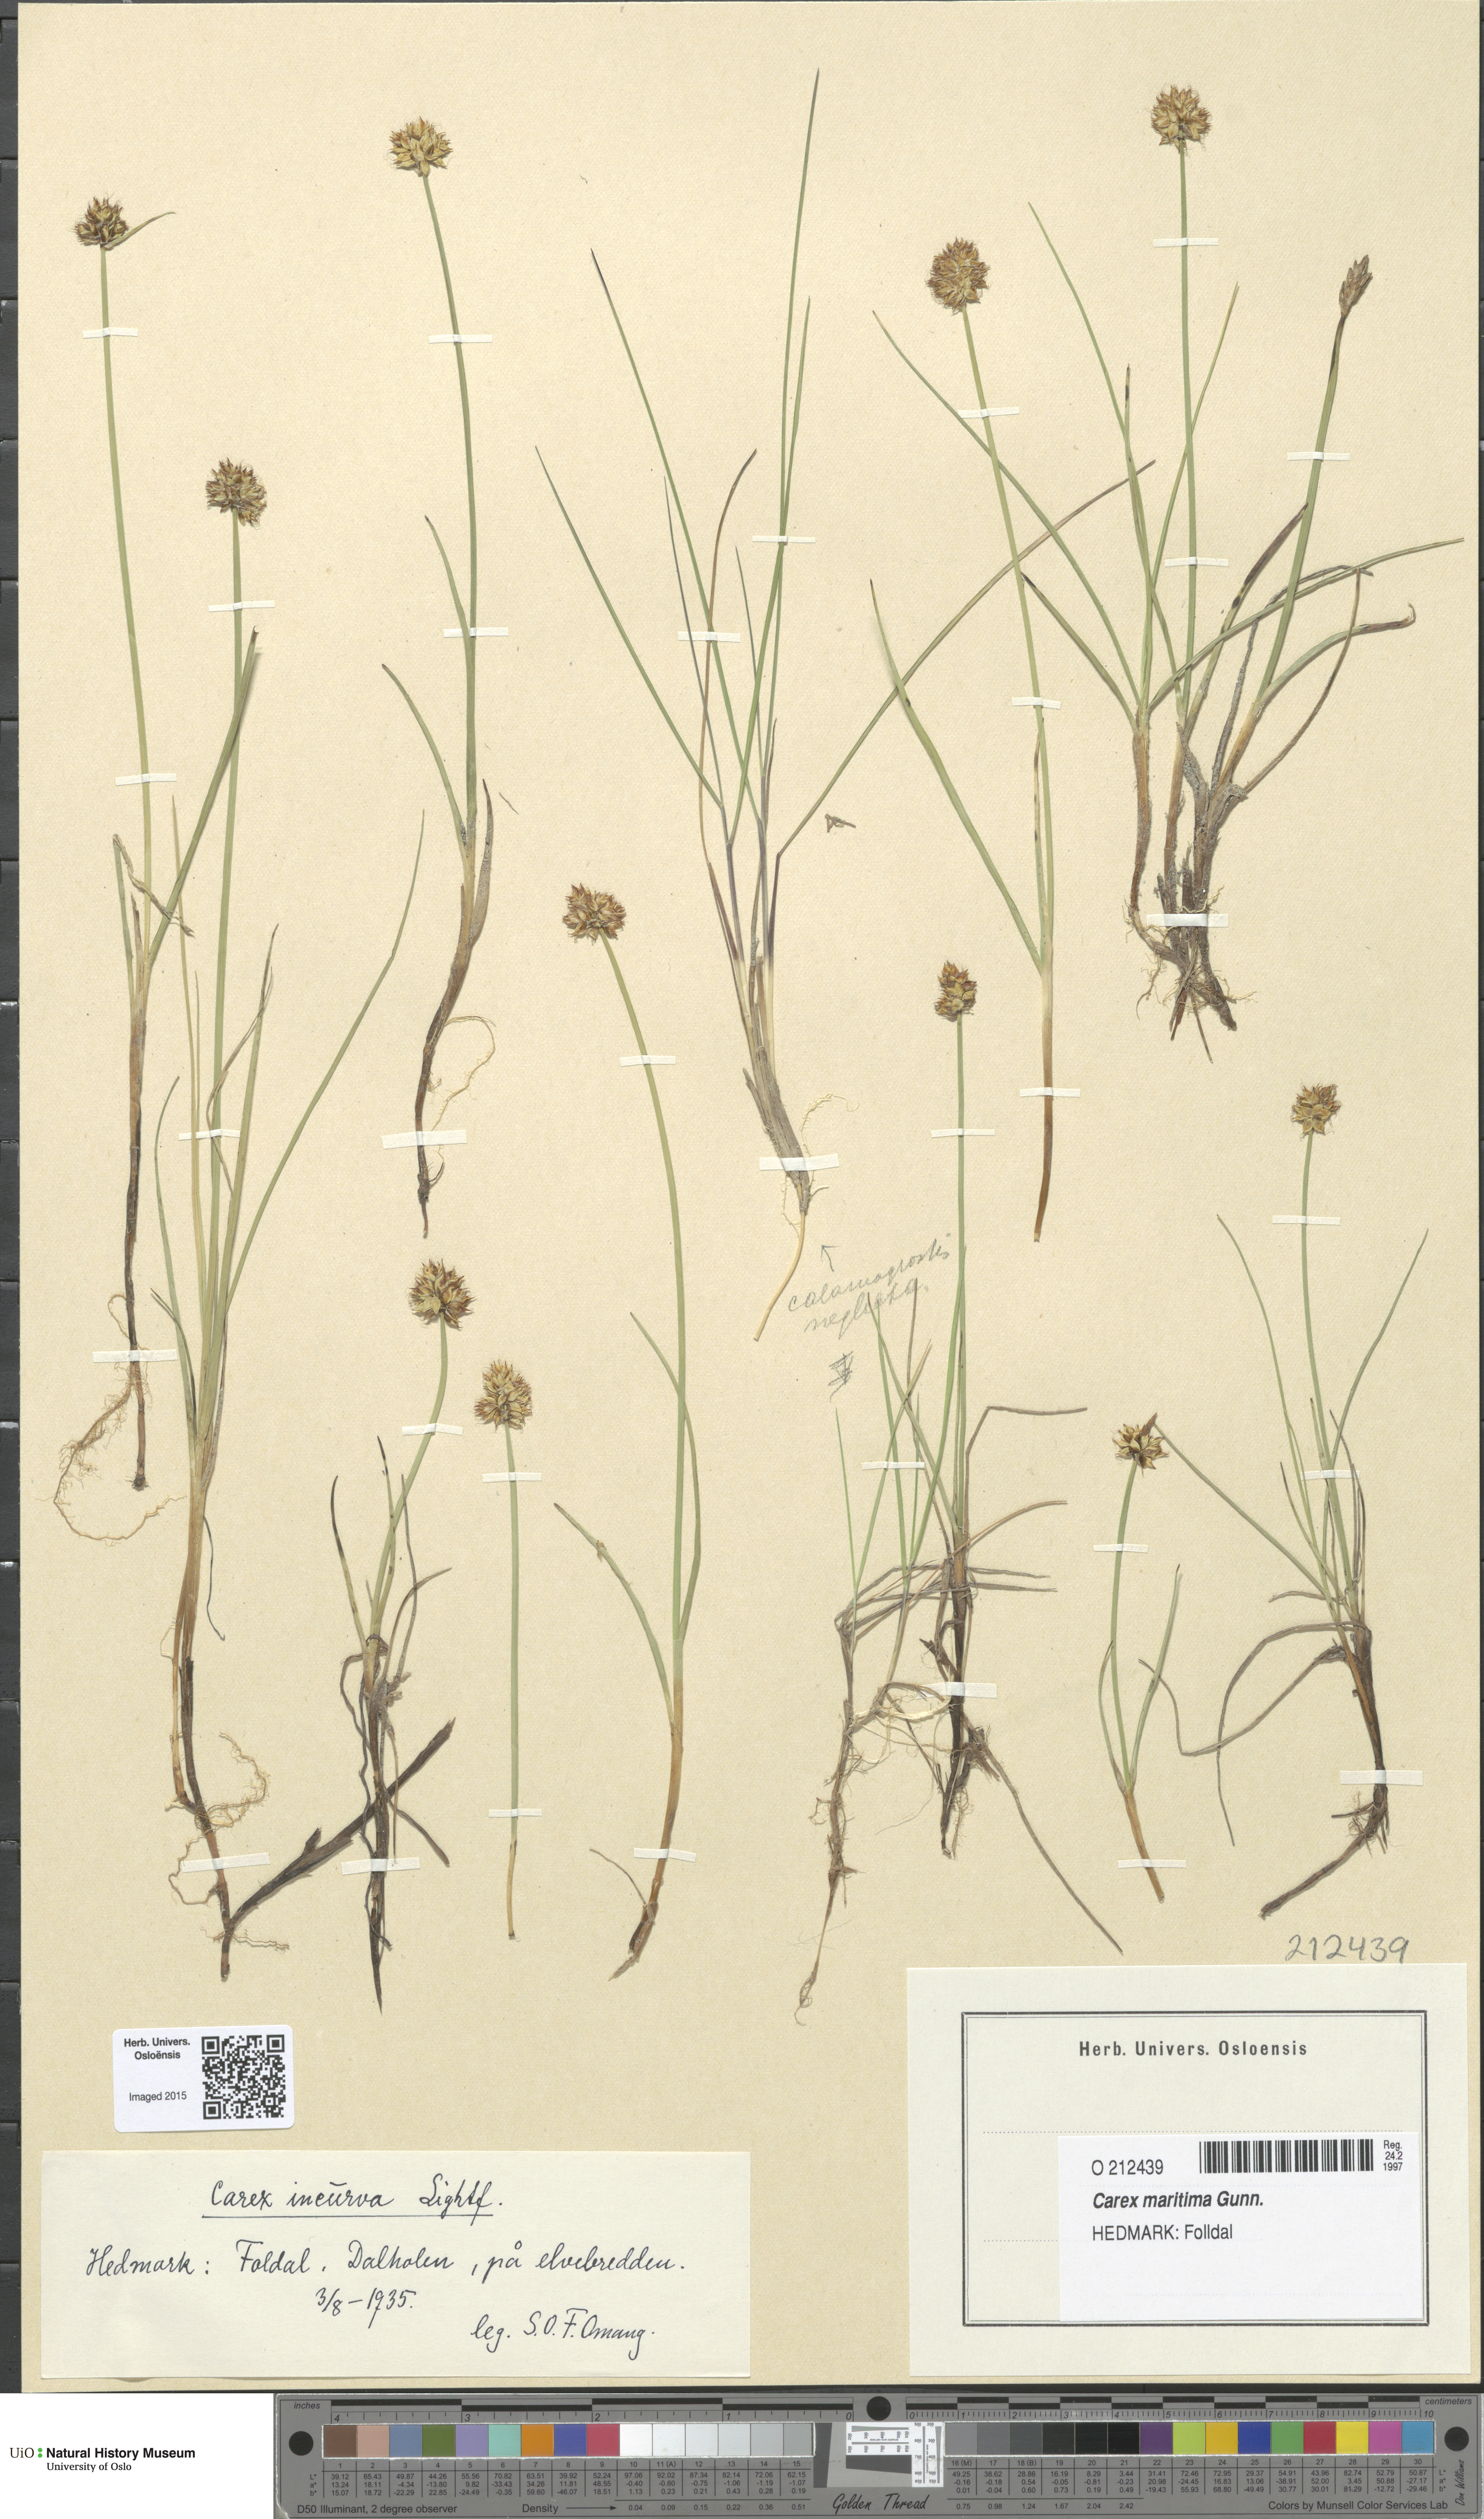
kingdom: Plantae
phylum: Tracheophyta
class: Liliopsida
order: Poales
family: Cyperaceae
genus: Carex
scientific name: Carex maritima
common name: Curved sedge
